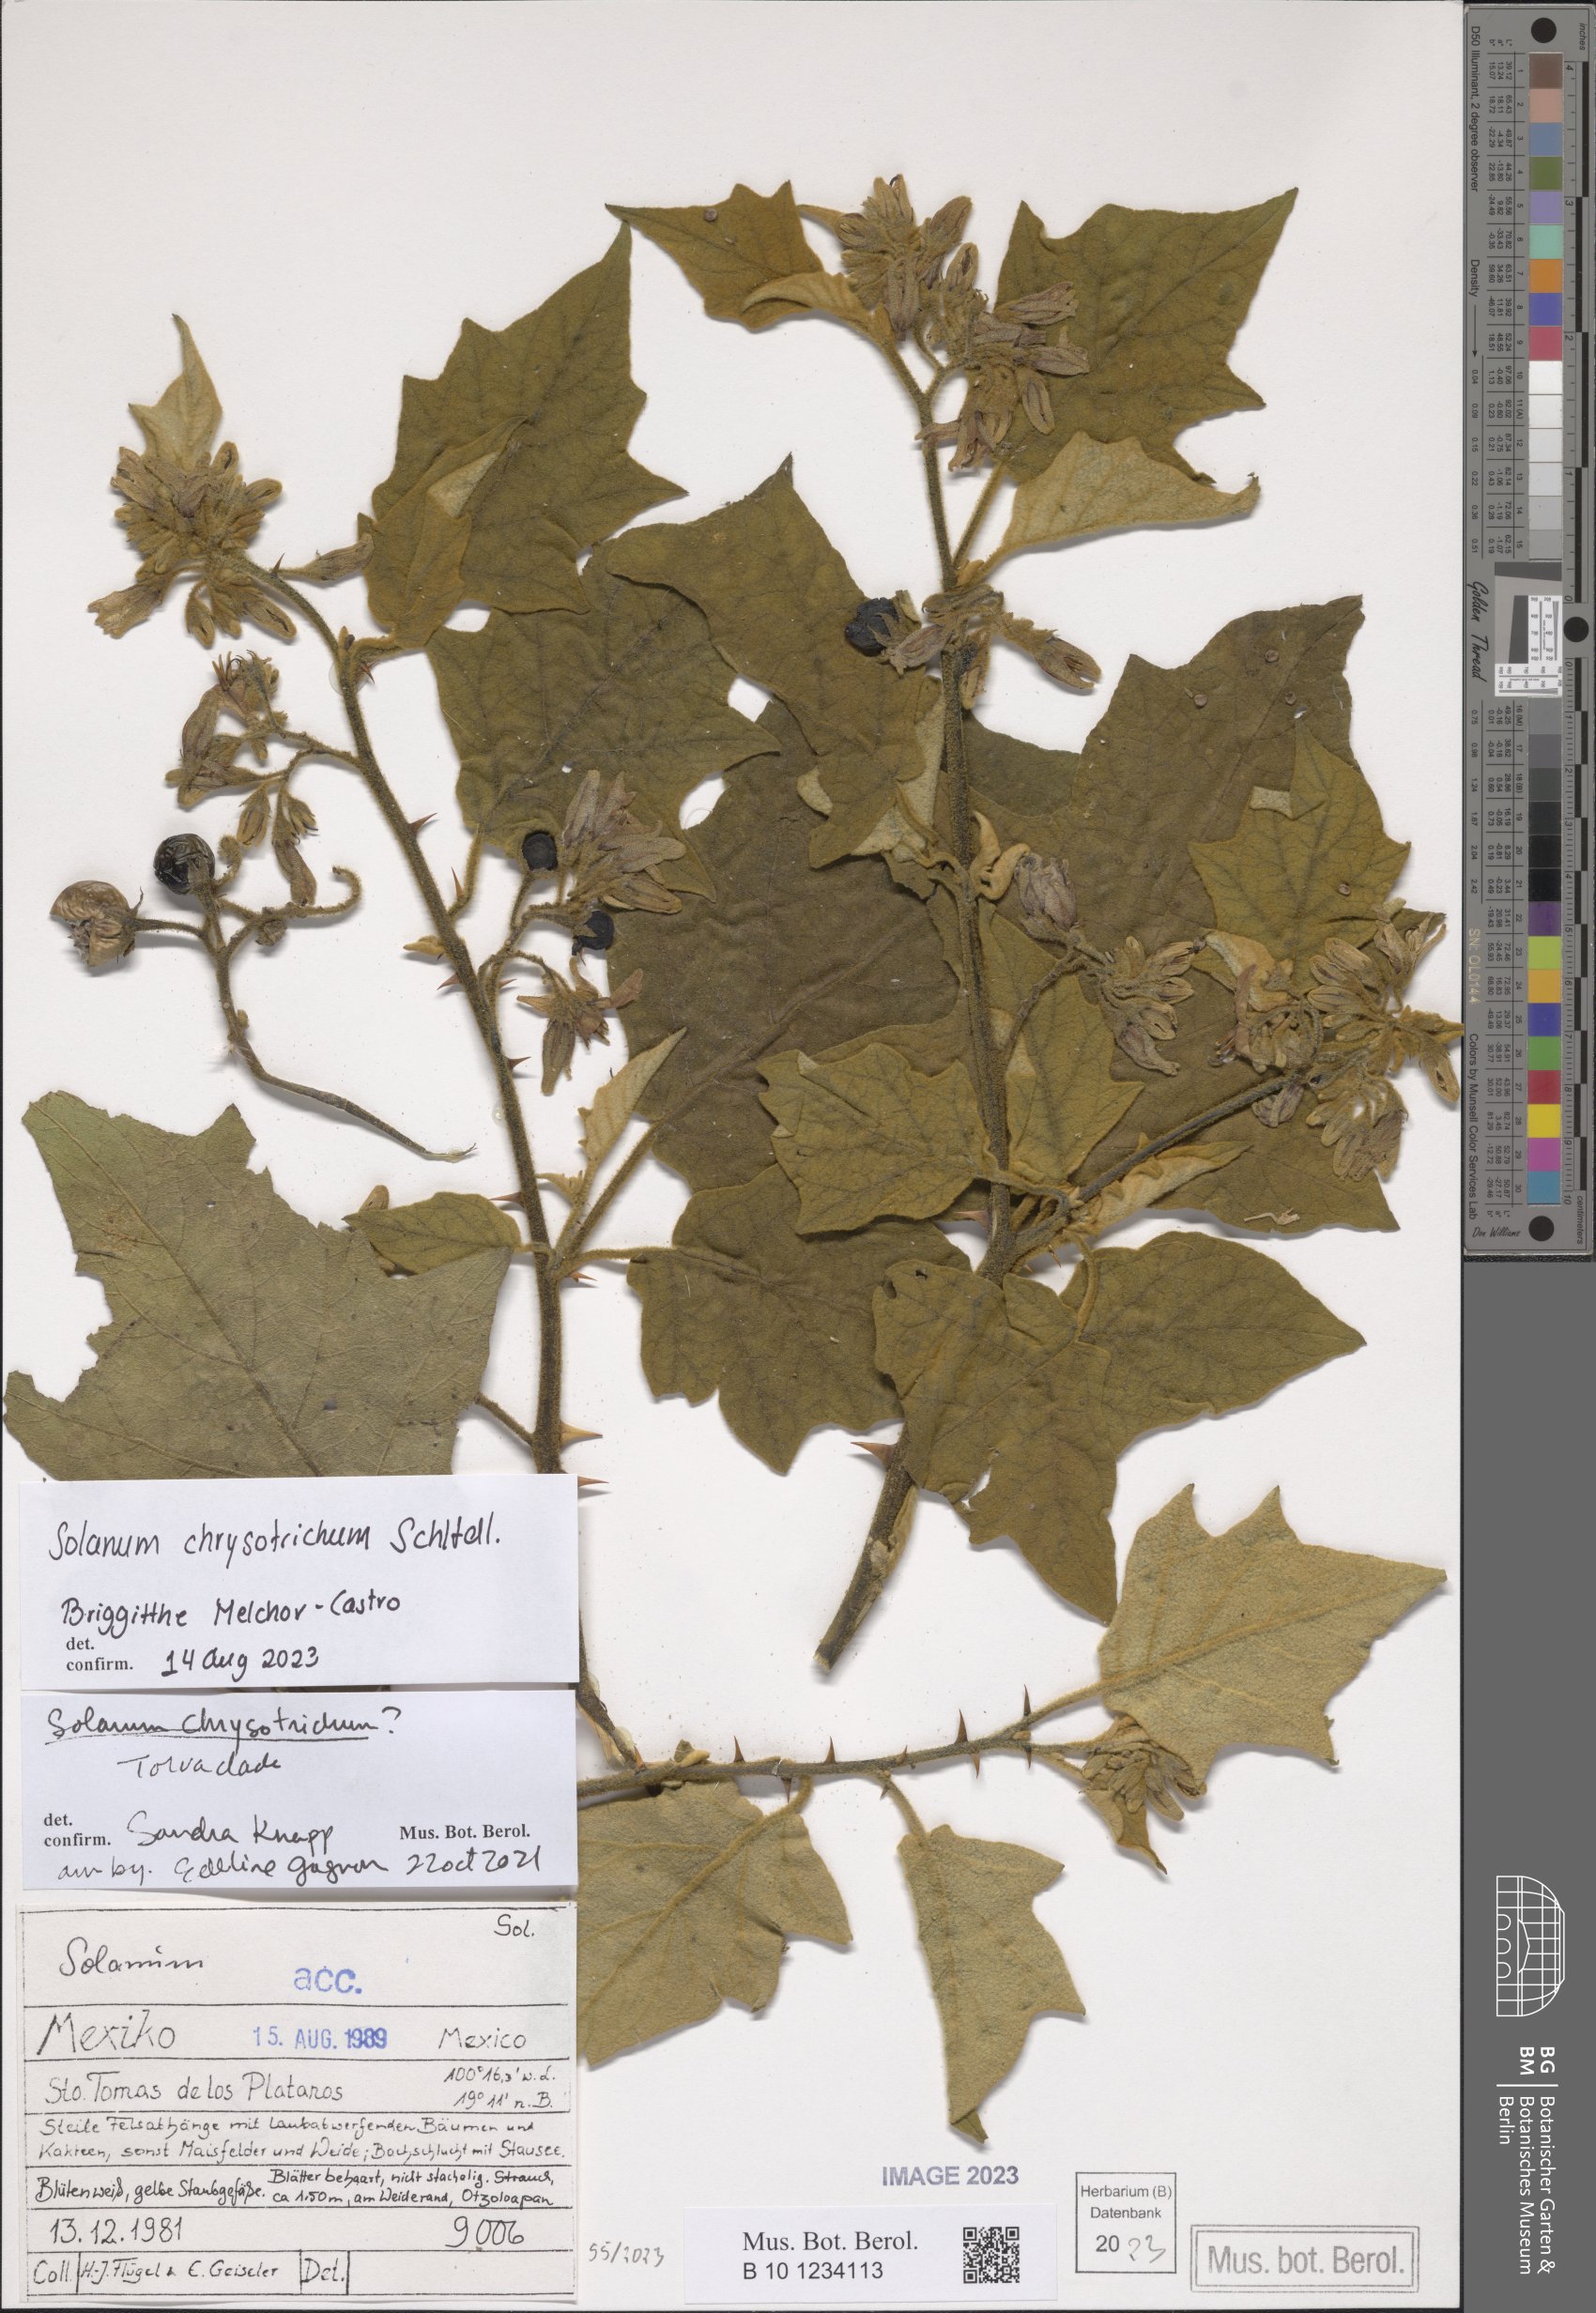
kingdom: Plantae
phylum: Tracheophyta
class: Magnoliopsida
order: Solanales
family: Solanaceae
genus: Solanum
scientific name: Solanum chrysotrichum
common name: Nightshade
